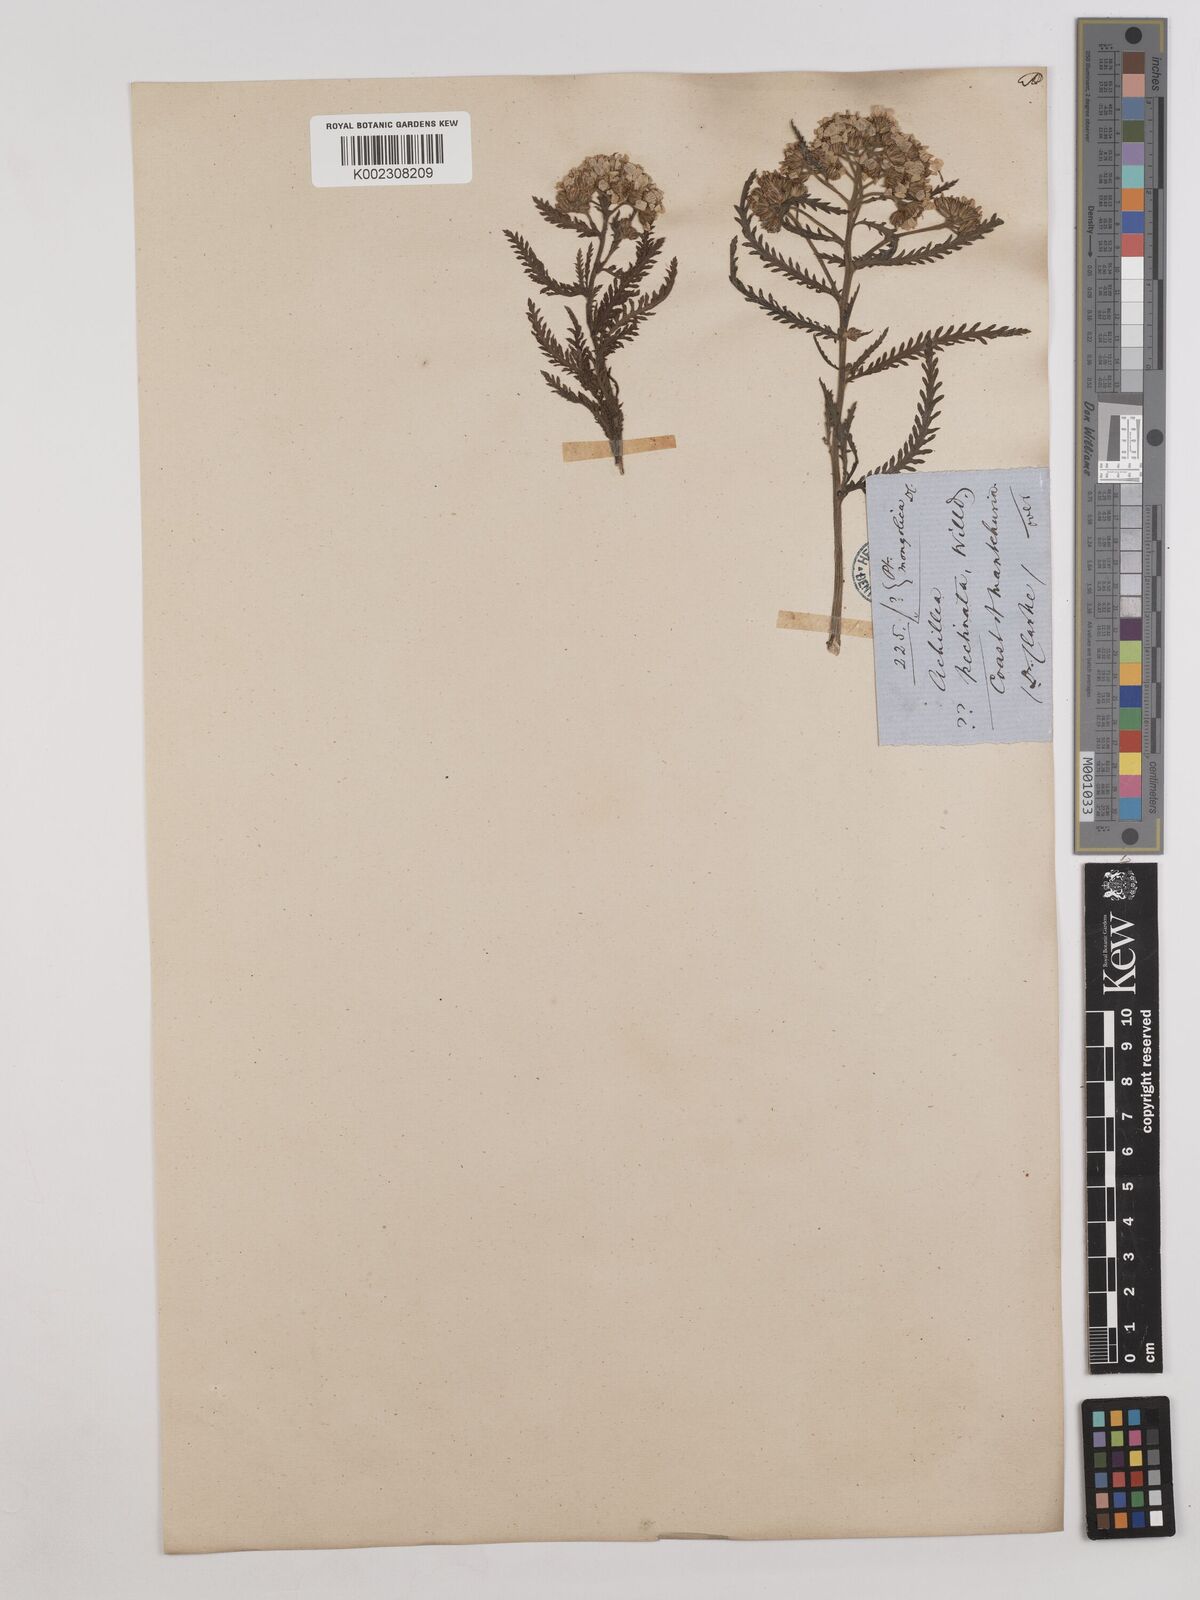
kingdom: Plantae
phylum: Tracheophyta
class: Magnoliopsida
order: Asterales
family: Asteraceae
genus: Achillea
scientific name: Achillea alpina
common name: Siberian yarrow
